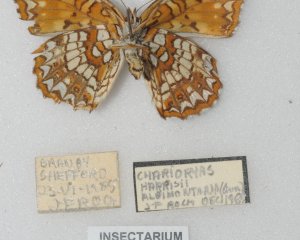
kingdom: Animalia
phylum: Arthropoda
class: Insecta
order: Lepidoptera
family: Nymphalidae
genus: Chlosyne
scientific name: Chlosyne harrisii
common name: Harris's Checkerspot
